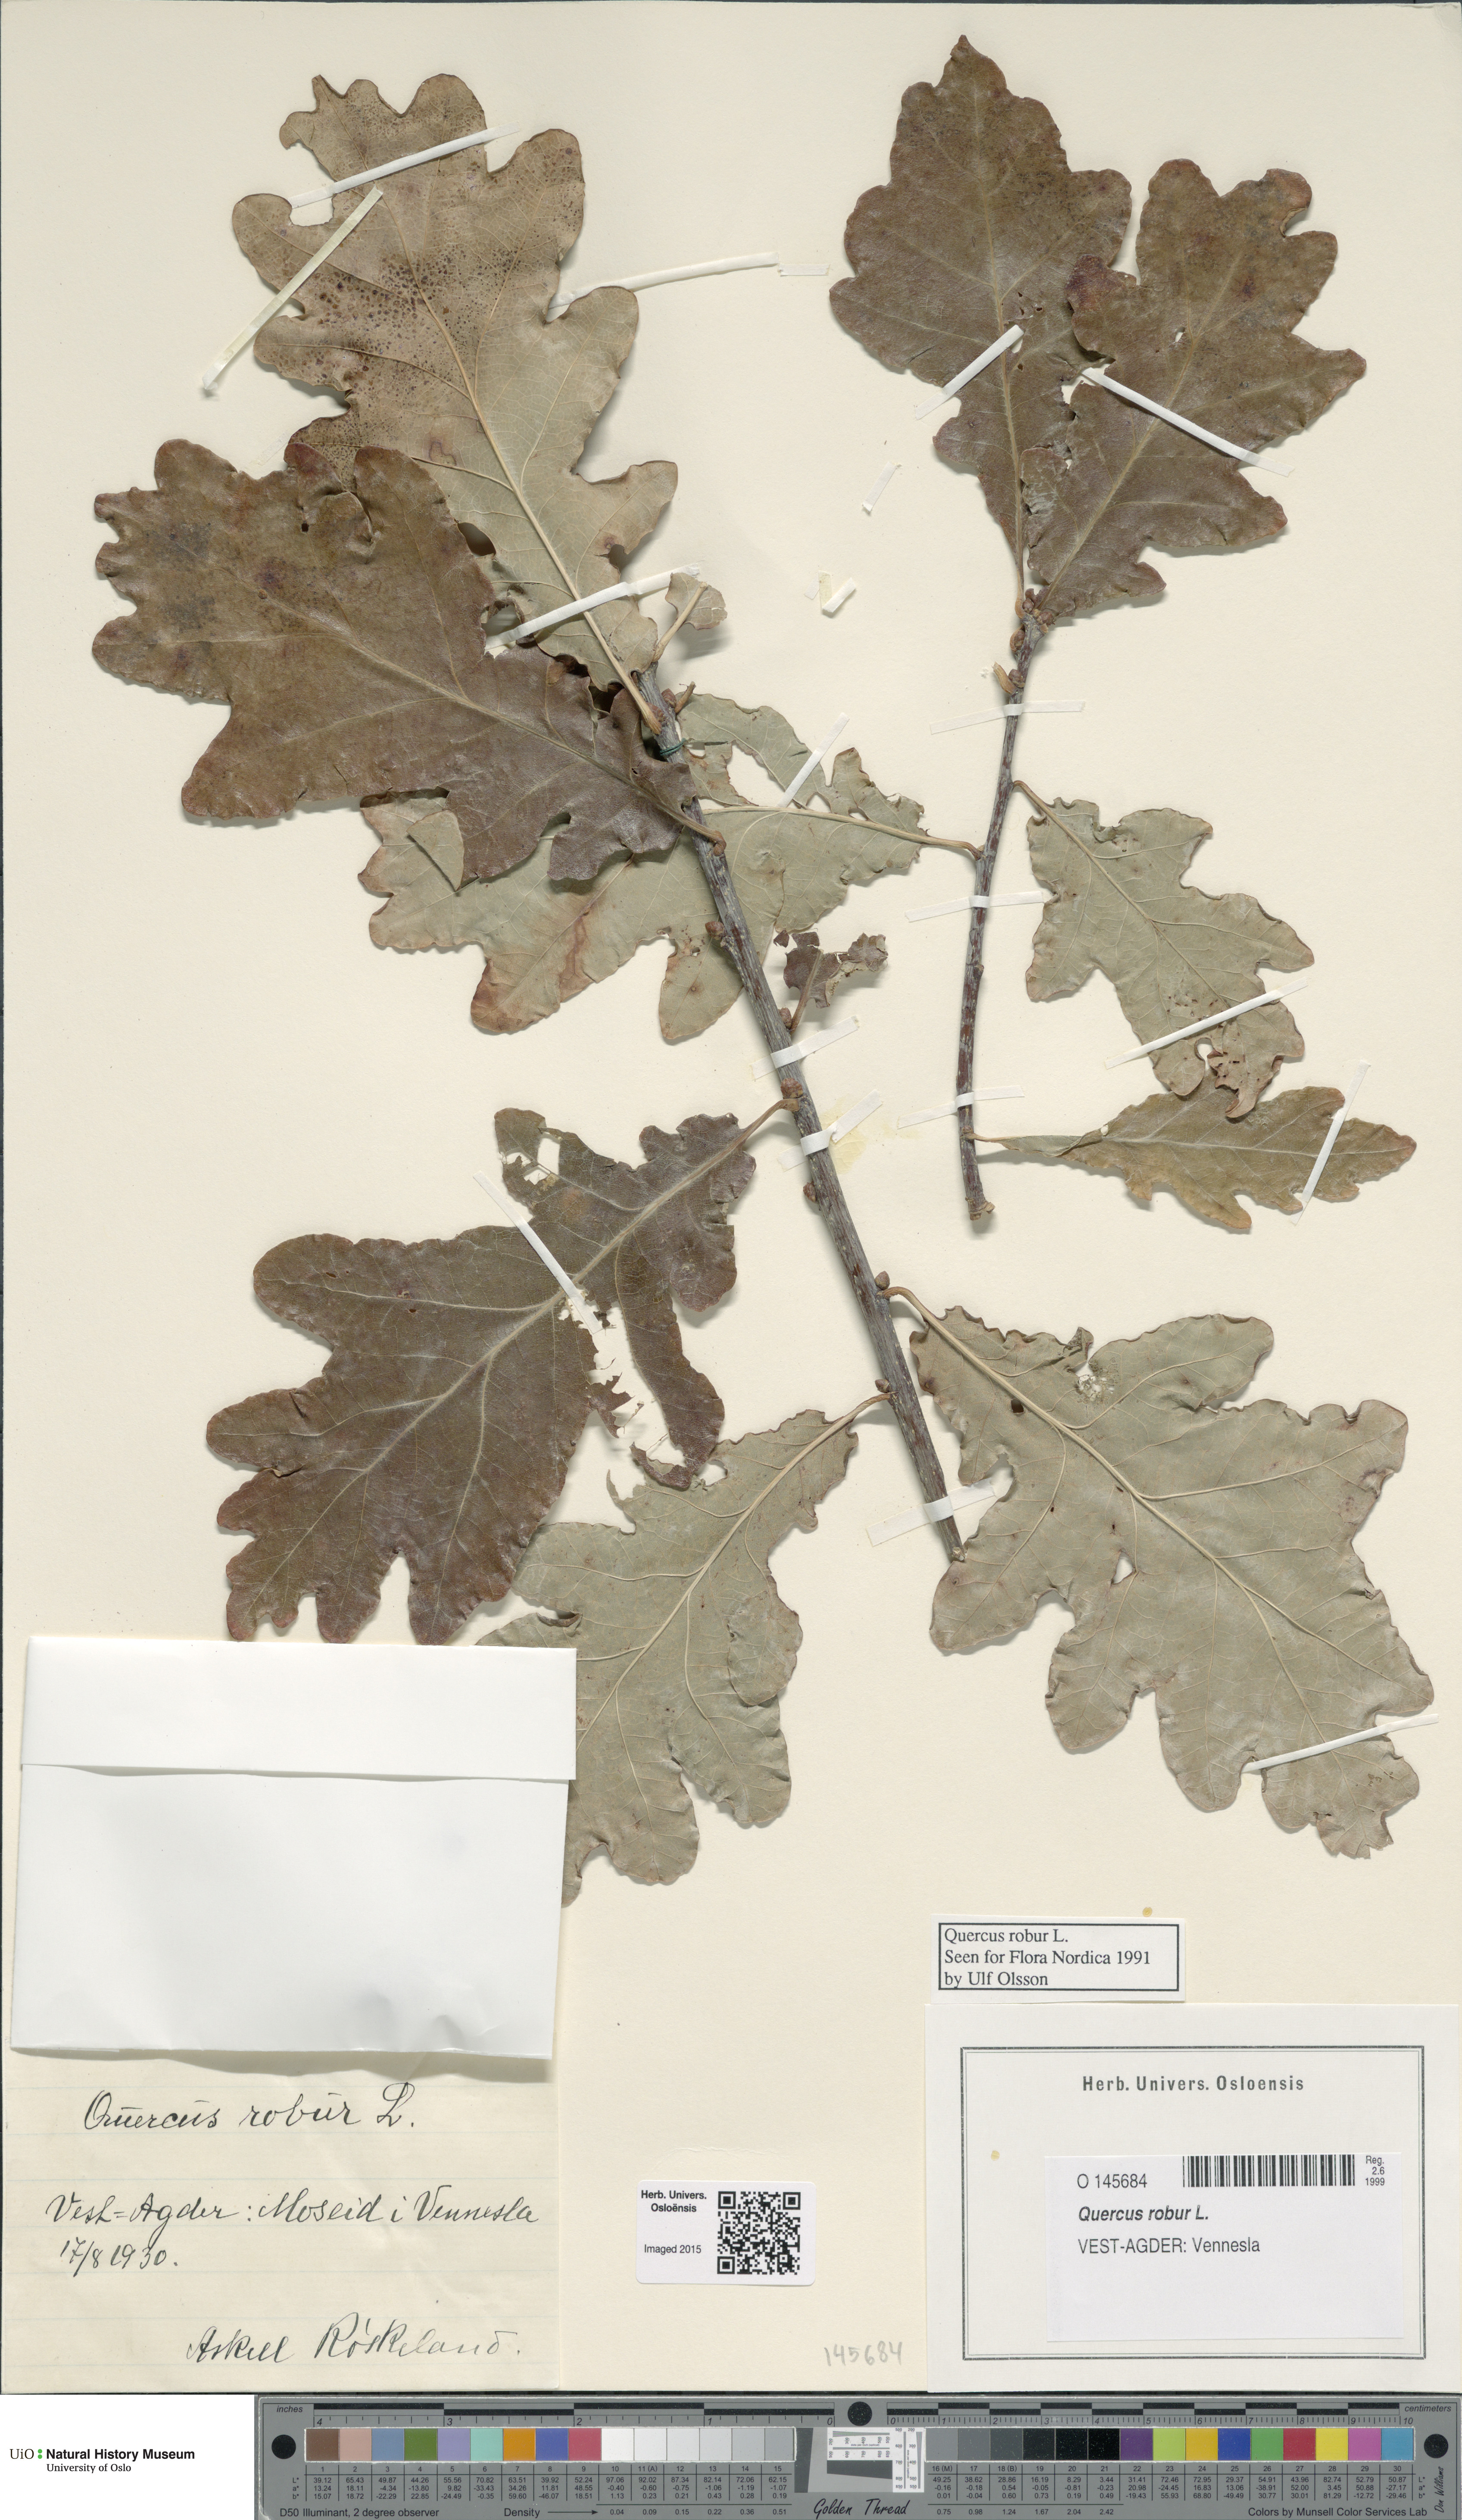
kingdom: Plantae
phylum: Tracheophyta
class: Magnoliopsida
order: Fagales
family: Fagaceae
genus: Quercus
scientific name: Quercus robur
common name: Pedunculate oak
